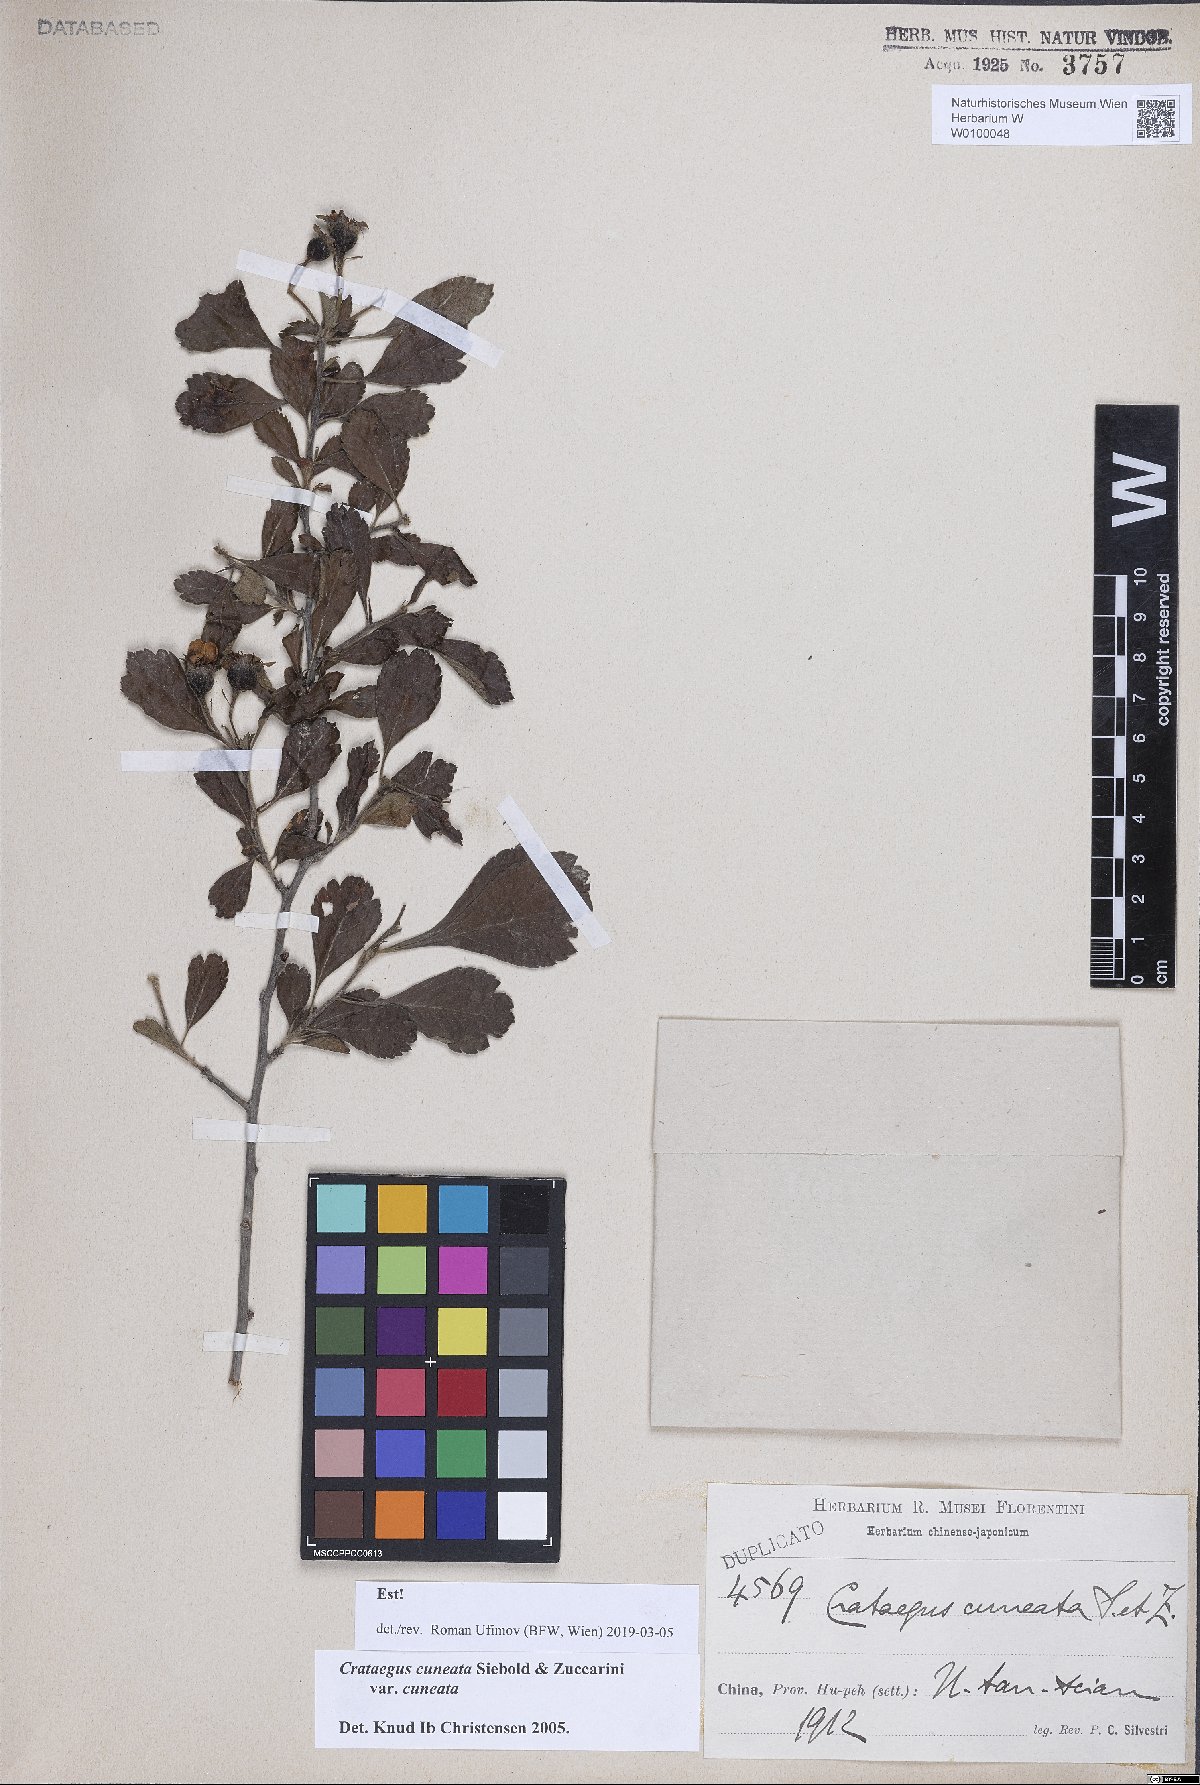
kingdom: Plantae
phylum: Tracheophyta
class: Magnoliopsida
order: Rosales
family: Rosaceae
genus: Crataegus
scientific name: Crataegus cuneata
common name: Chinese hawthorn
